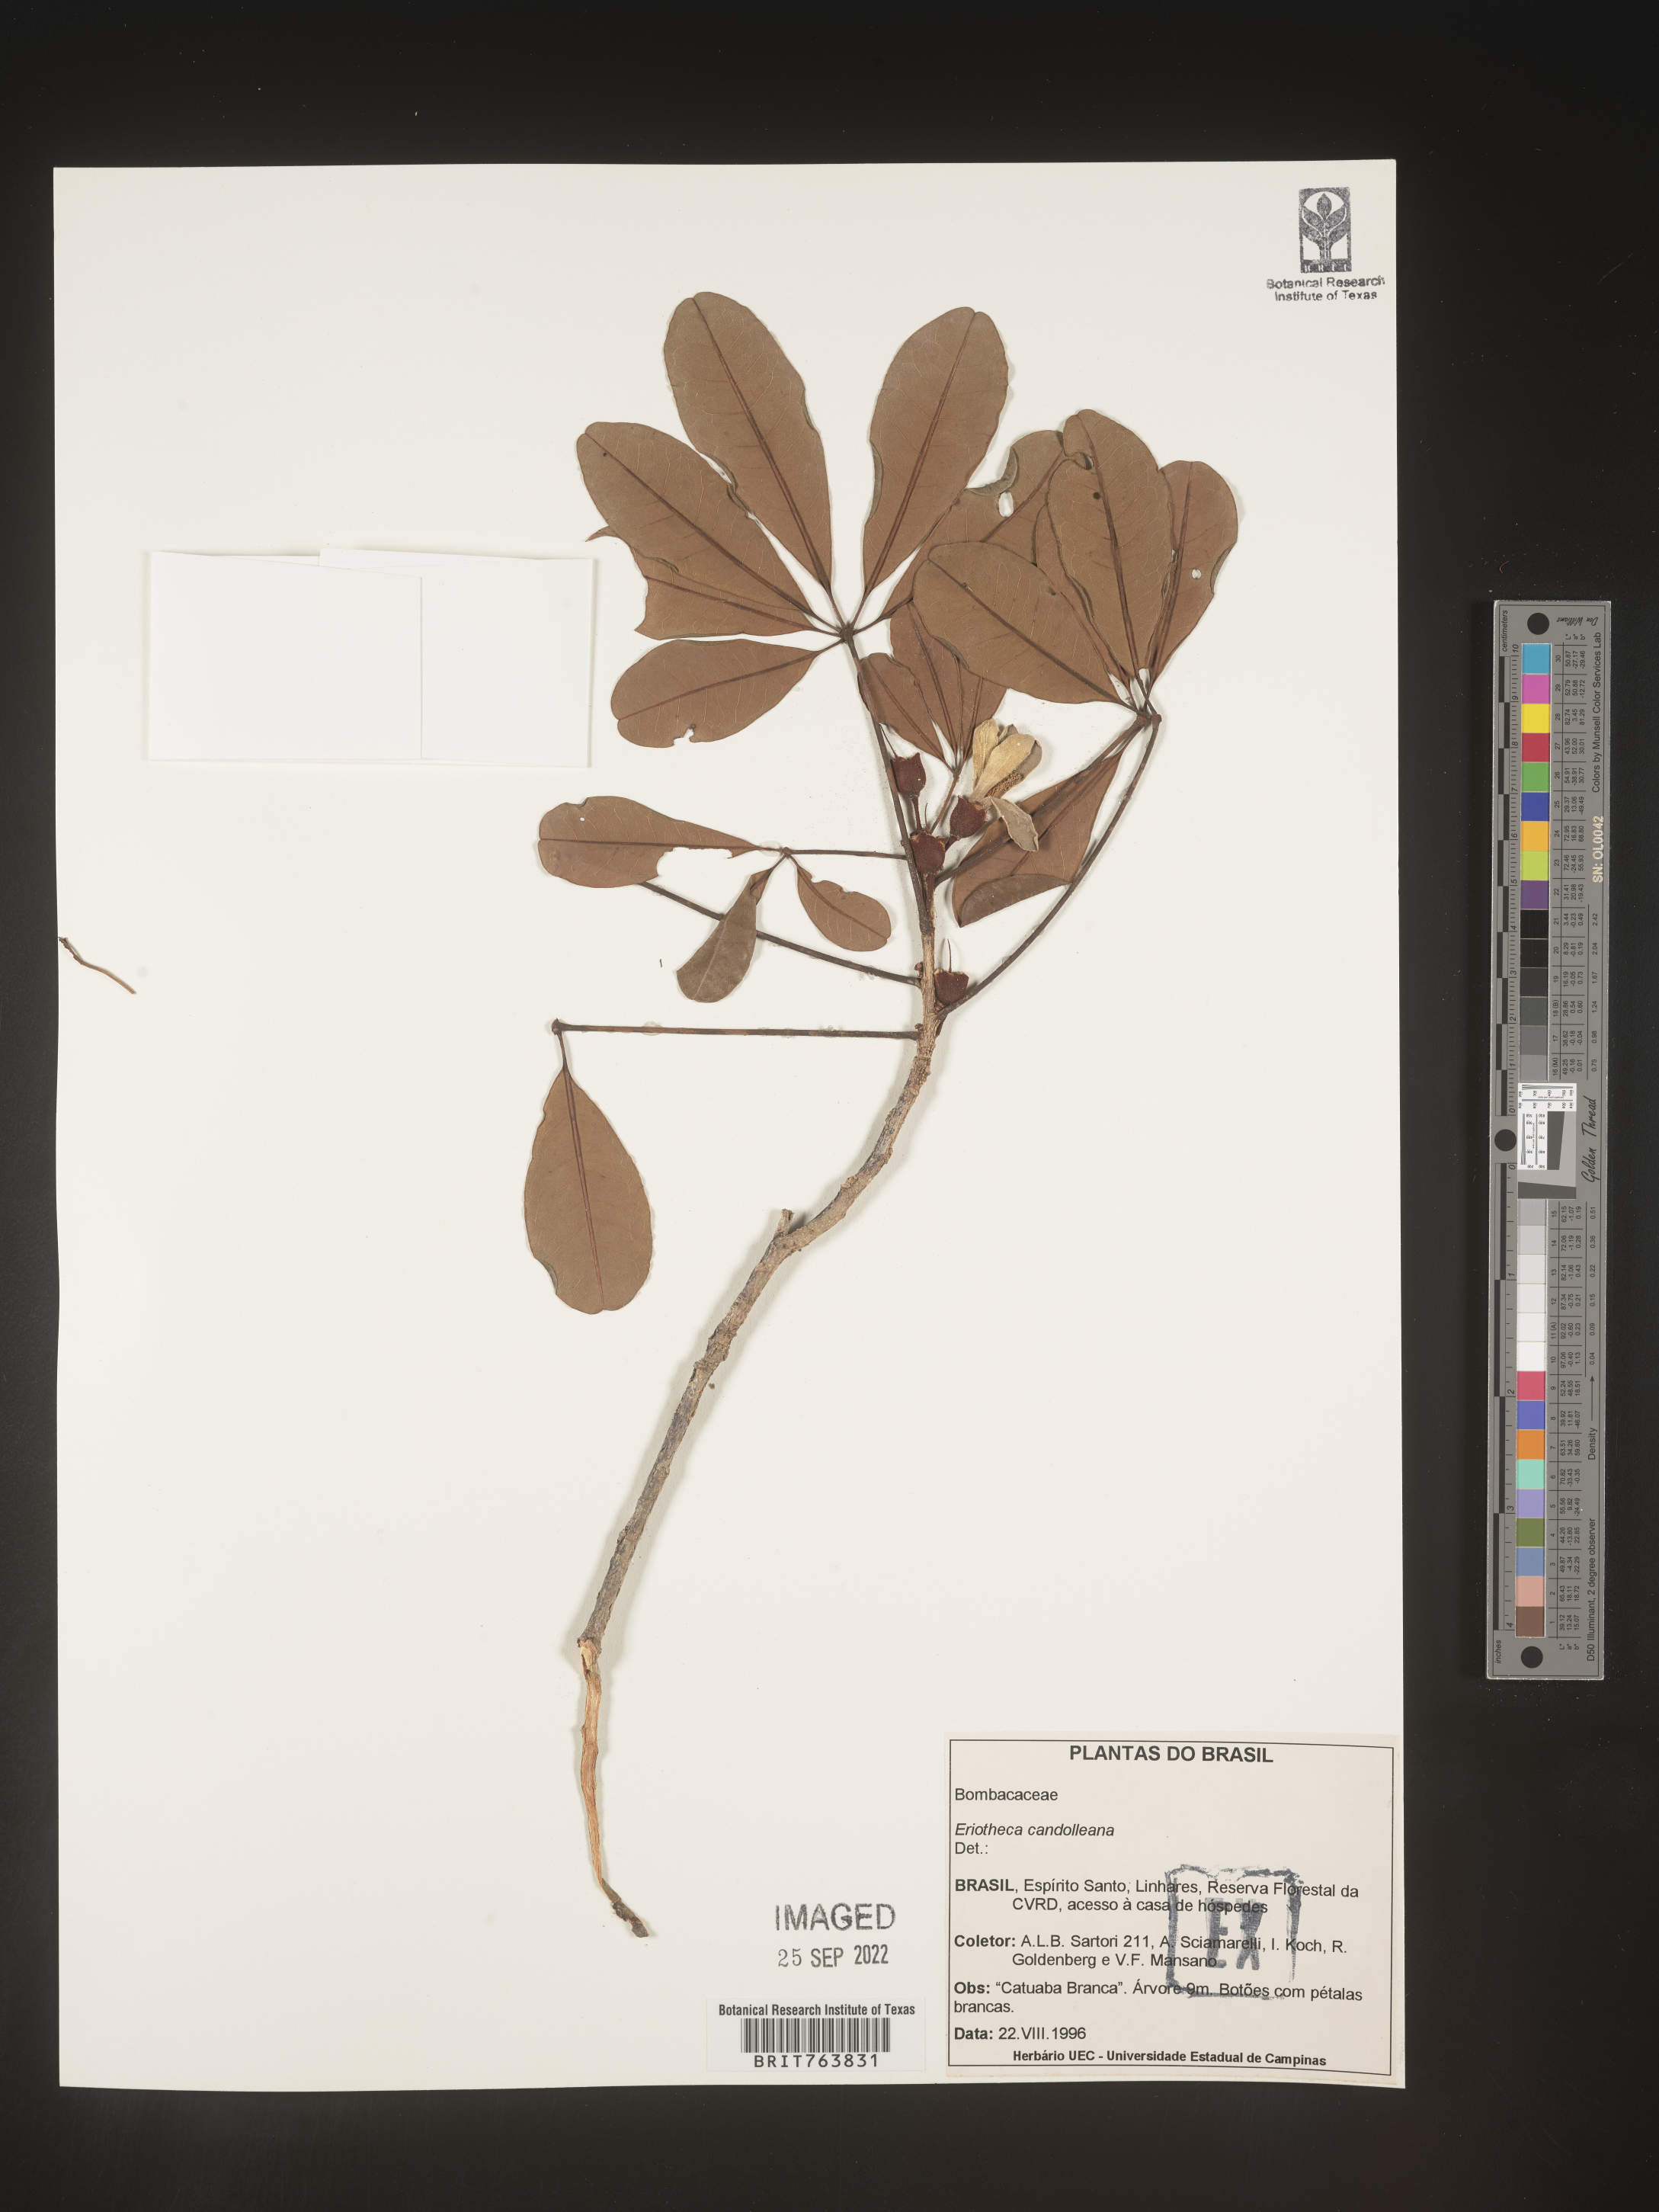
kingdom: Plantae
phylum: Tracheophyta
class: Magnoliopsida
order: Malvales
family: Malvaceae
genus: Eriotheca
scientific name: Eriotheca
